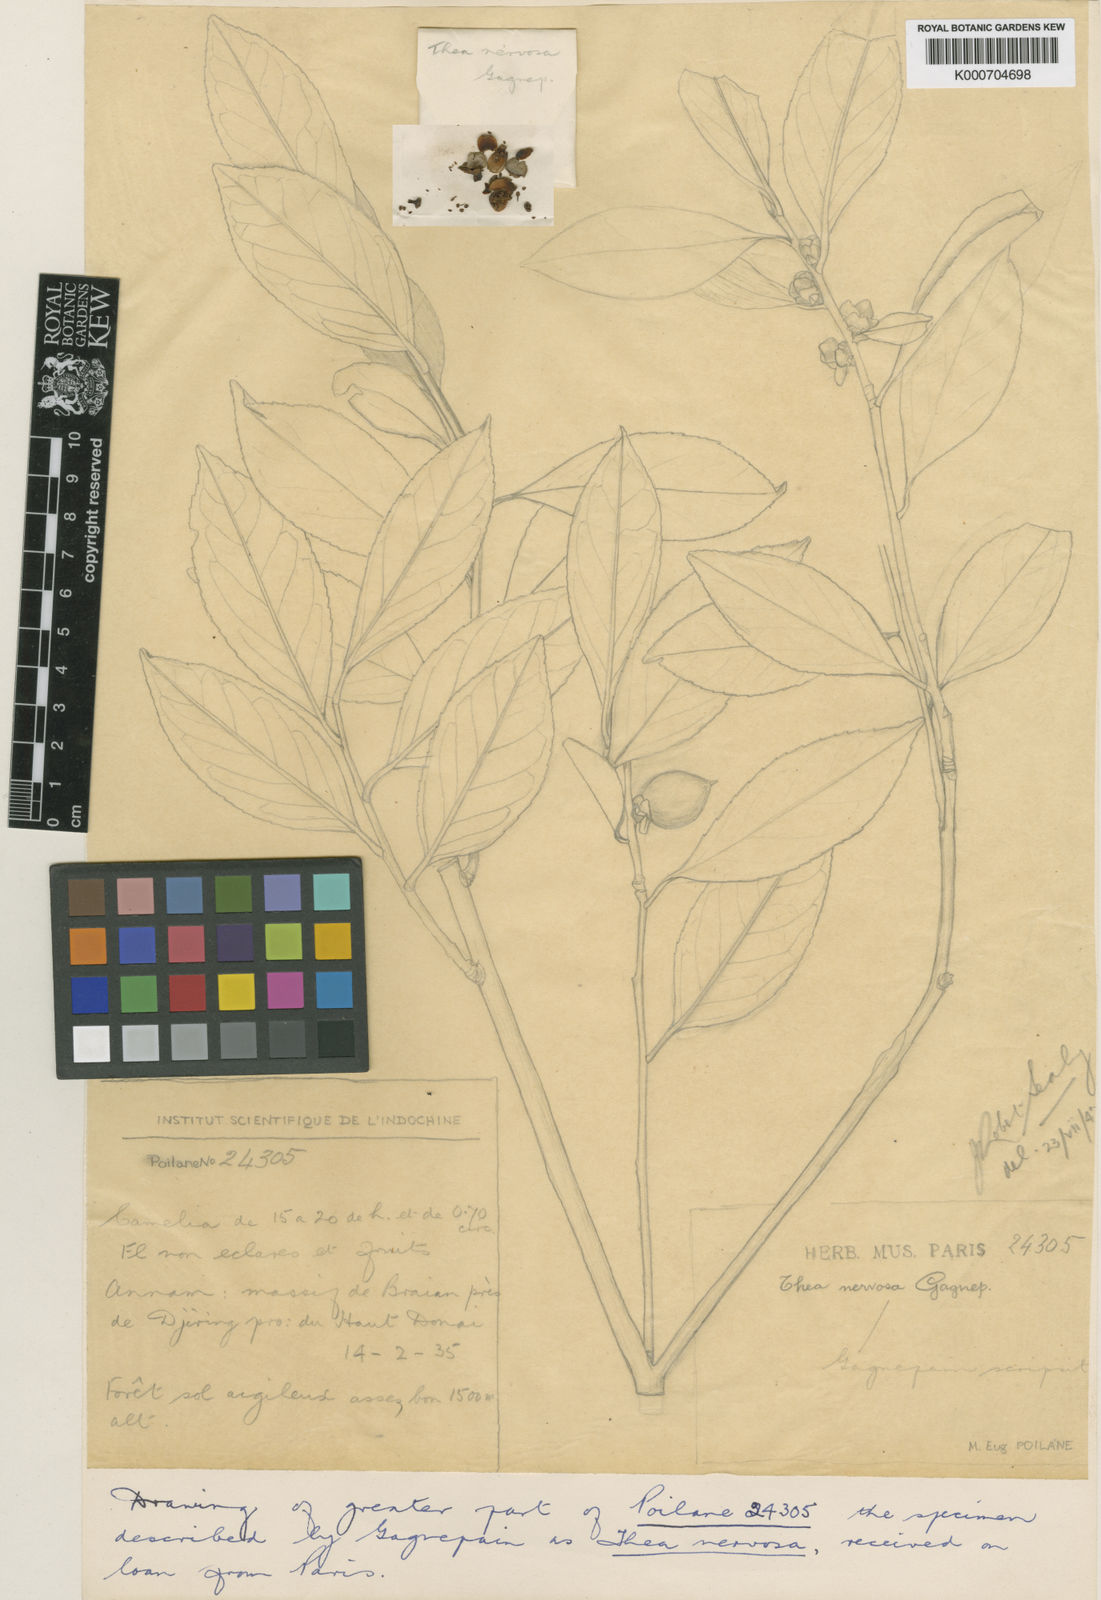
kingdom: Plantae
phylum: Tracheophyta
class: Magnoliopsida
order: Ericales
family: Theaceae
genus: Camellia
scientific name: Camellia nervosa
